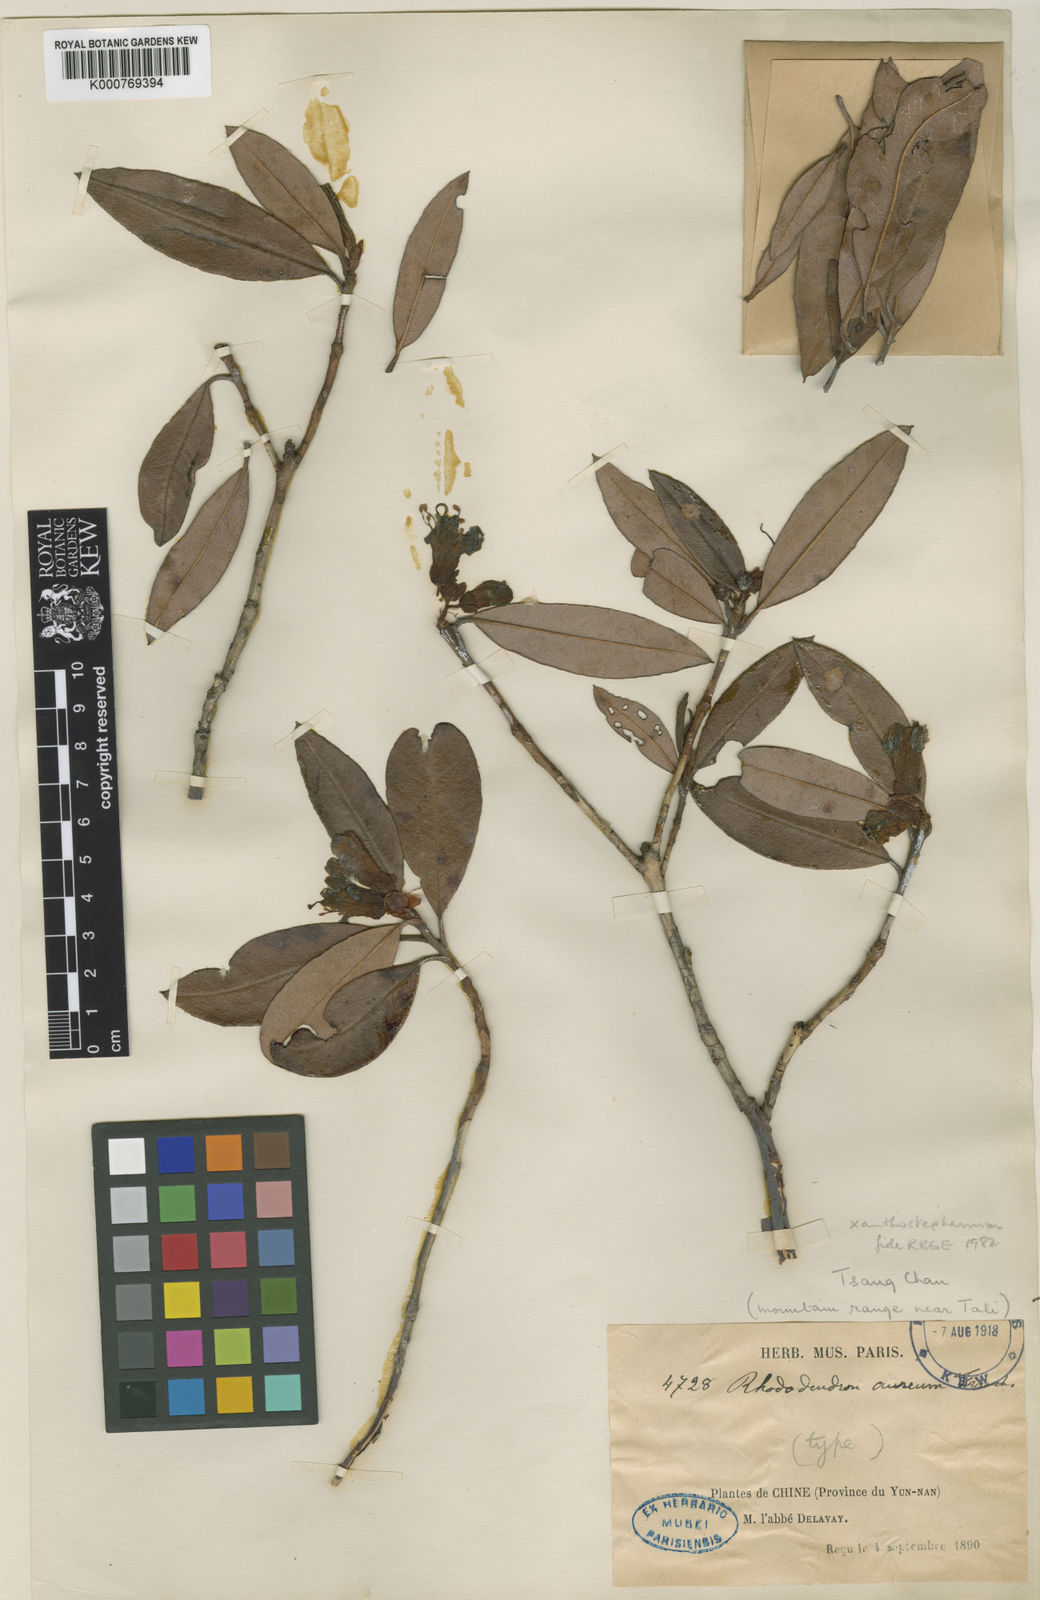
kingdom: Plantae
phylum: Tracheophyta
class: Magnoliopsida
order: Ericales
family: Ericaceae
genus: Rhododendron
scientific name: Rhododendron xanthostephanum
